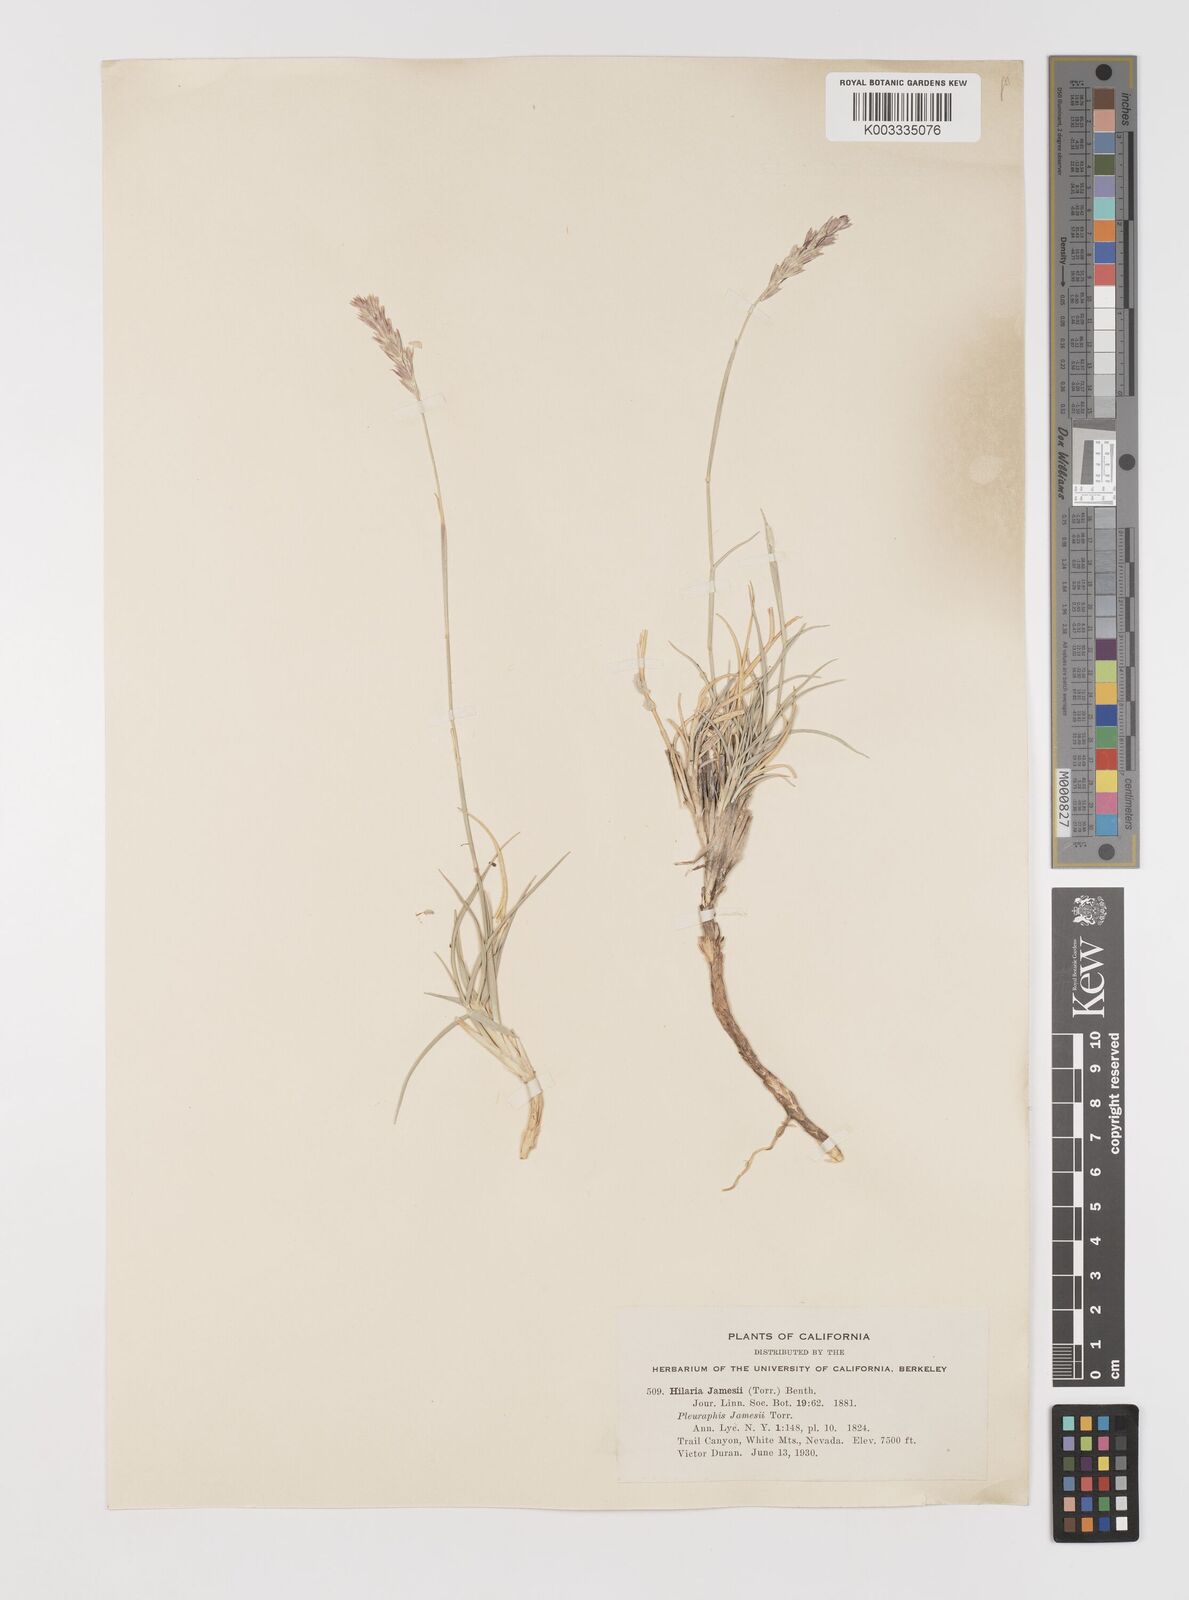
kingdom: Plantae
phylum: Tracheophyta
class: Liliopsida
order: Poales
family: Poaceae
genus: Hilaria
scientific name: Hilaria jamesii
